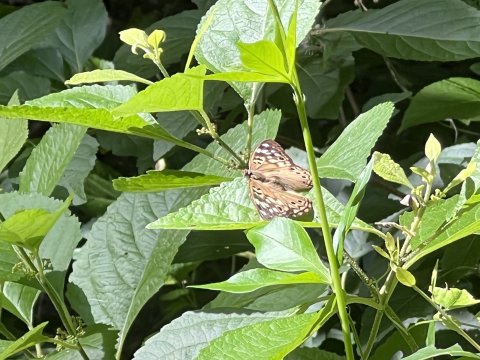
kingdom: Animalia
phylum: Arthropoda
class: Insecta
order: Lepidoptera
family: Nymphalidae
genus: Asterocampa
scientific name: Asterocampa celtis
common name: Hackberry Emperor
